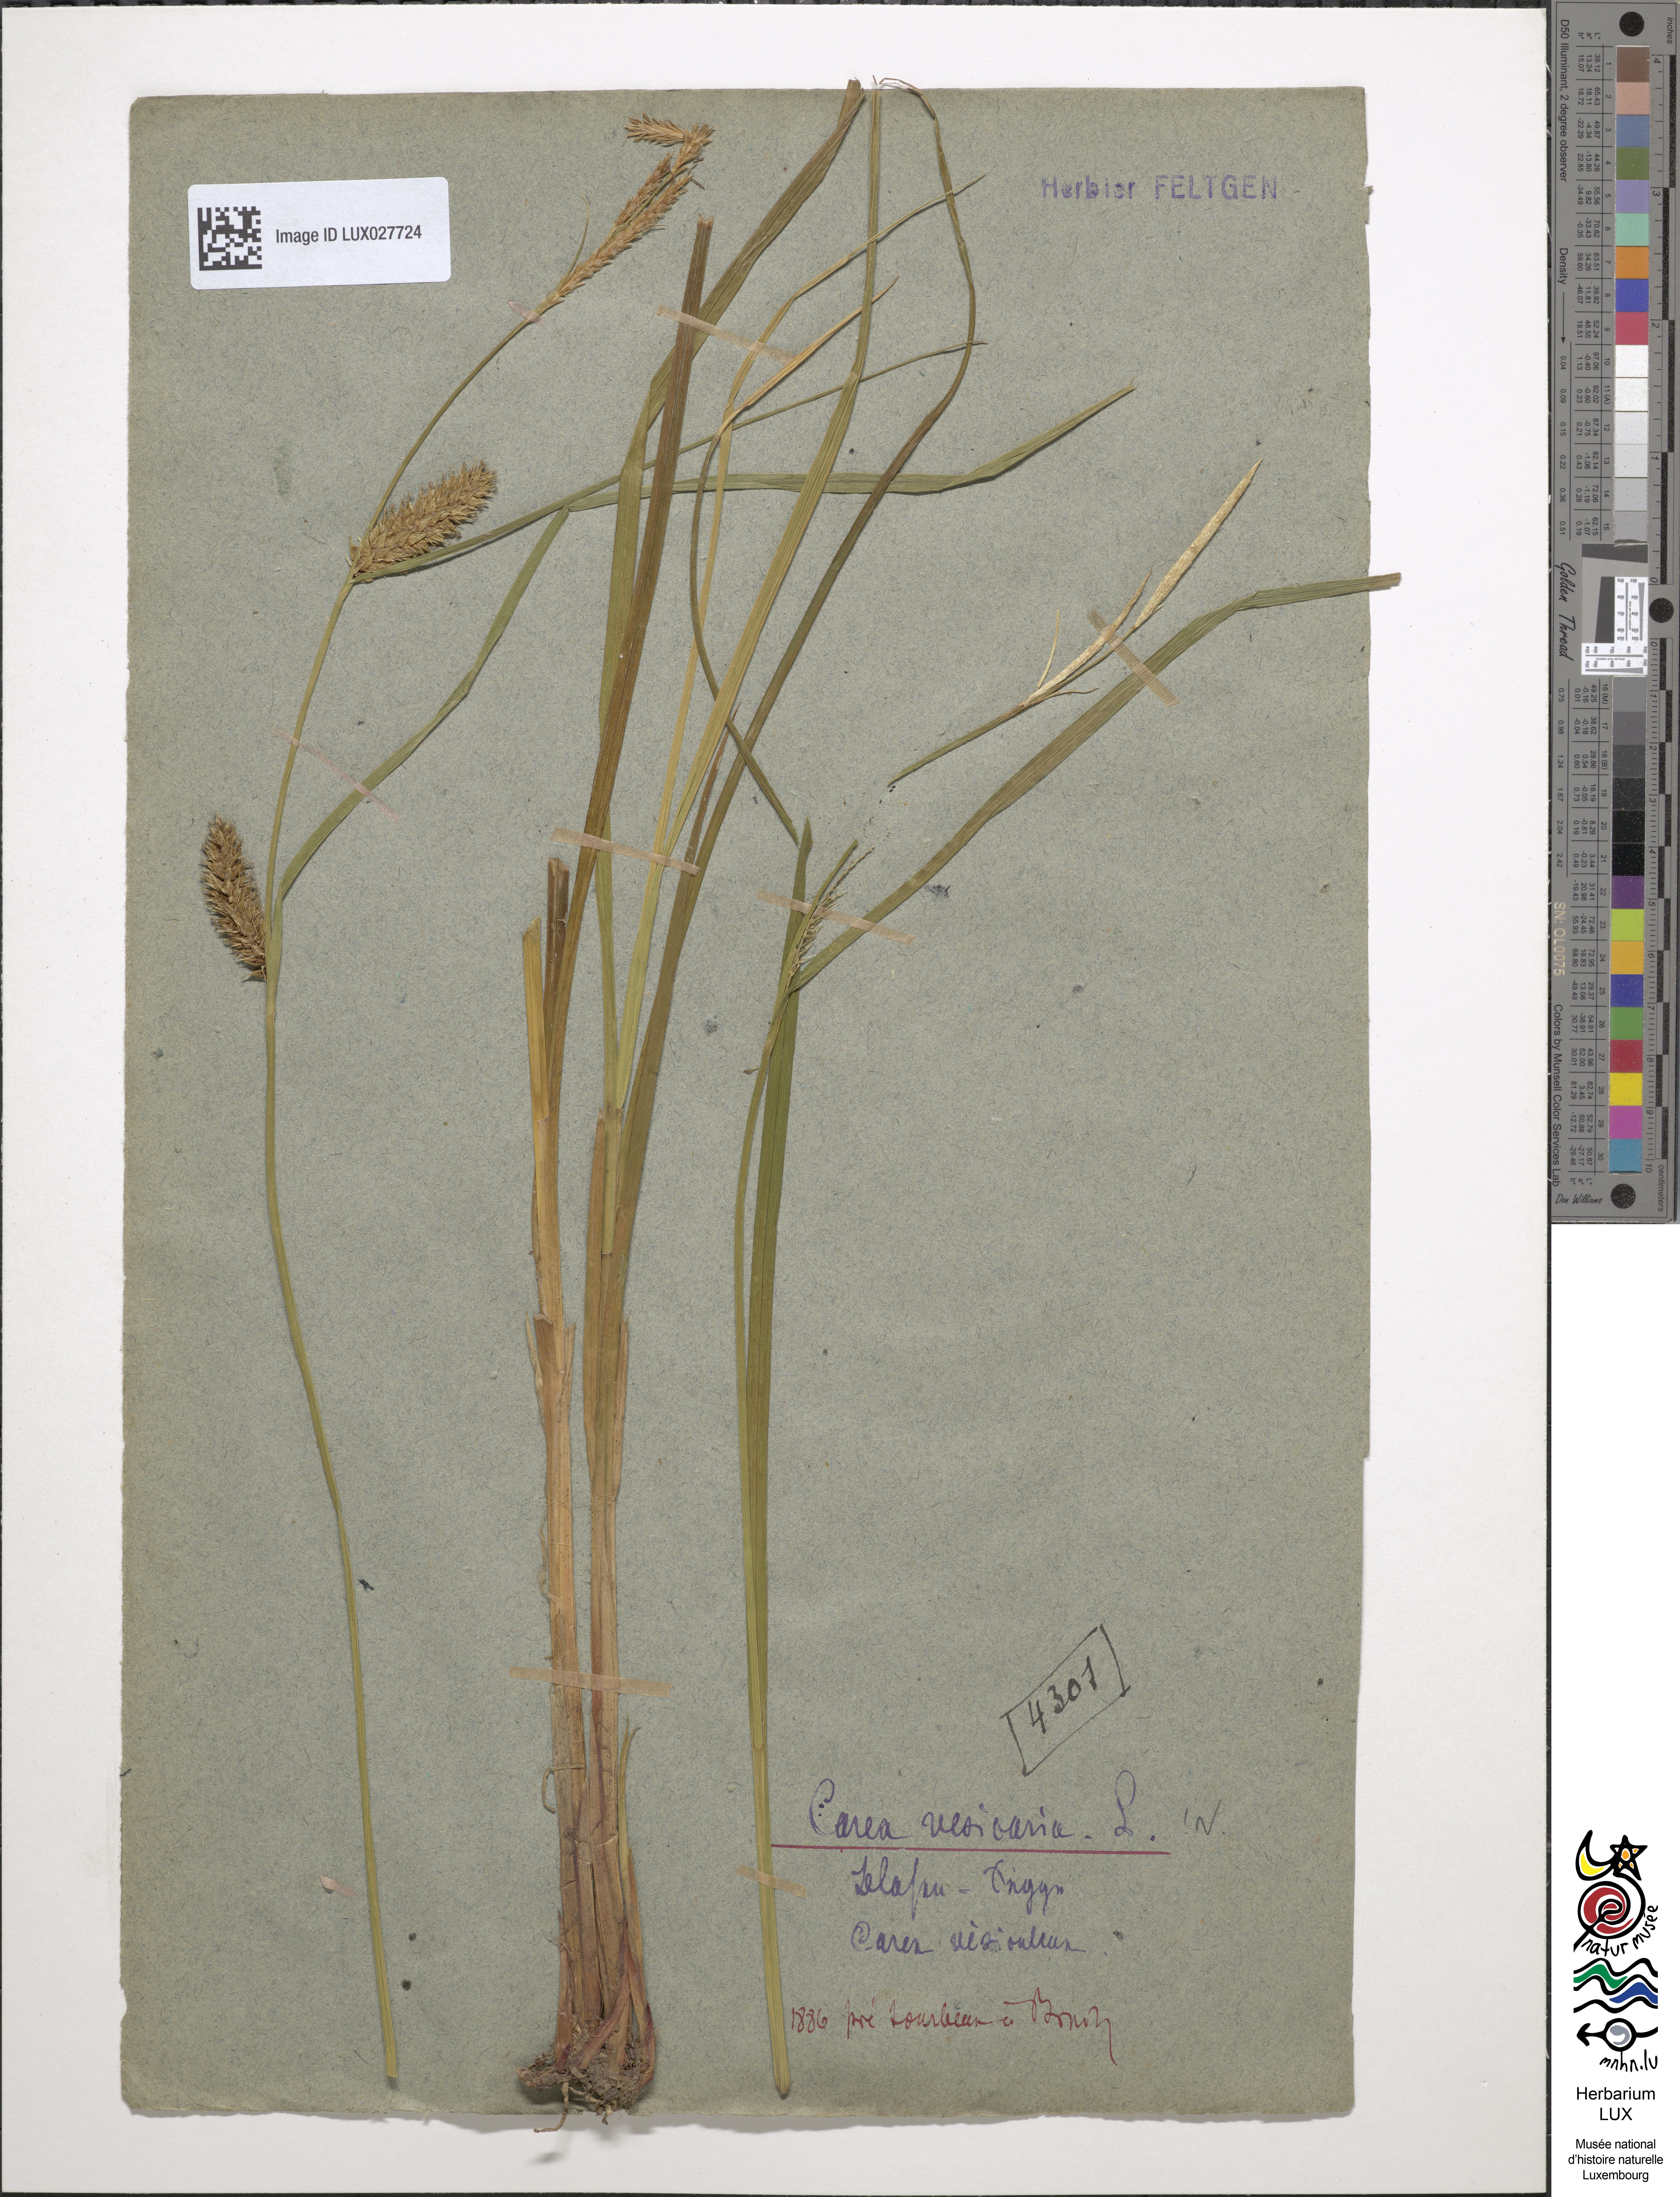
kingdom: Plantae
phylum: Tracheophyta
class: Liliopsida
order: Poales
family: Cyperaceae
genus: Carex
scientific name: Carex vesicaria
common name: Bladder-sedge
